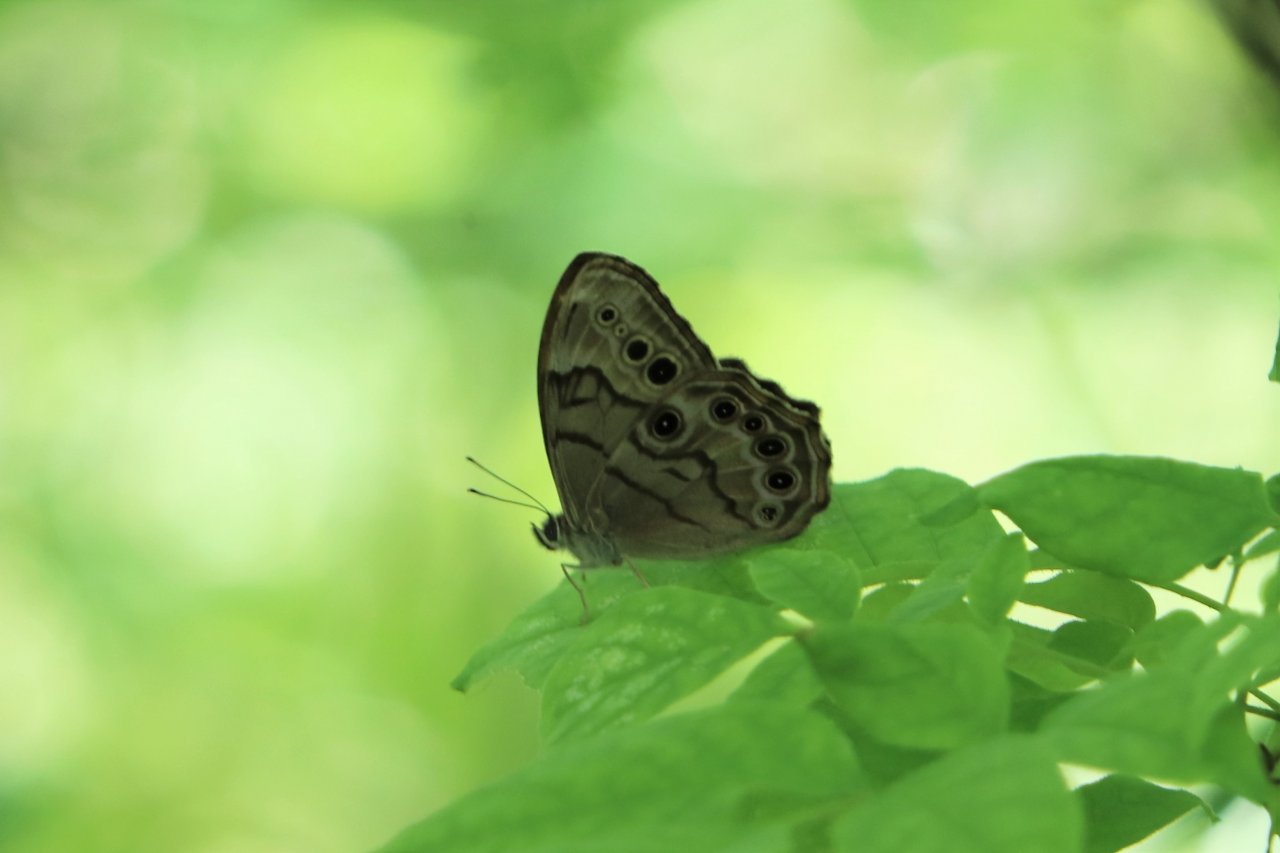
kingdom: Animalia
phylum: Arthropoda
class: Insecta
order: Lepidoptera
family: Nymphalidae
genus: Lethe
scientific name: Lethe anthedon
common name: Northern Pearly-Eye
